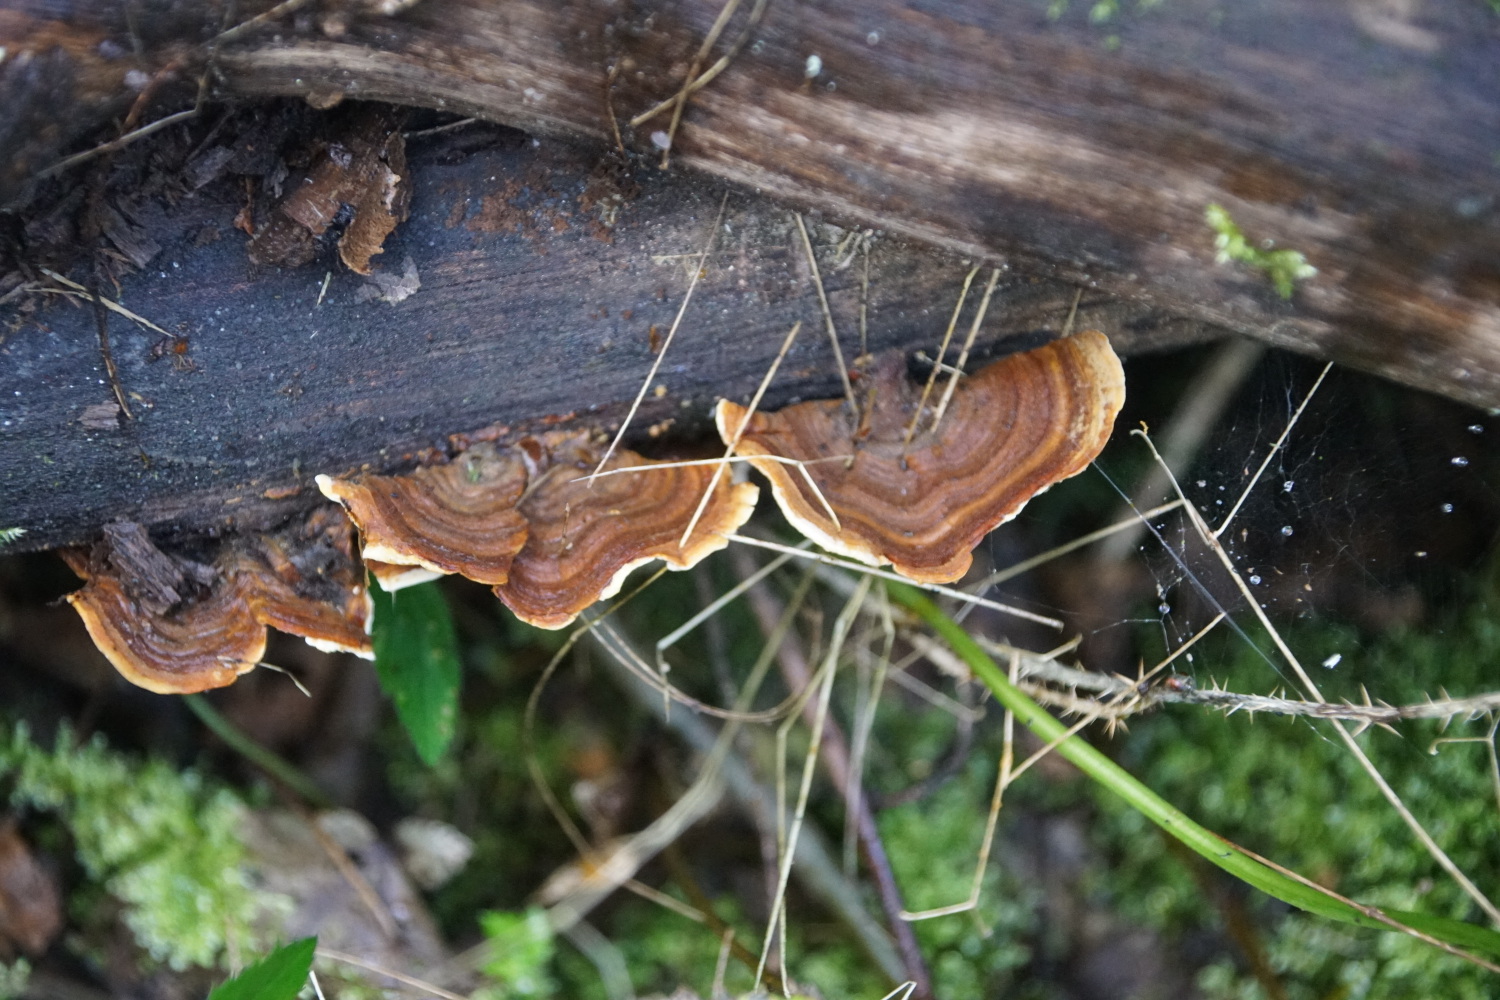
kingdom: Fungi
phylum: Basidiomycota
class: Agaricomycetes
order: Russulales
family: Stereaceae
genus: Stereum
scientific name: Stereum subtomentosum
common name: smuk lædersvamp
